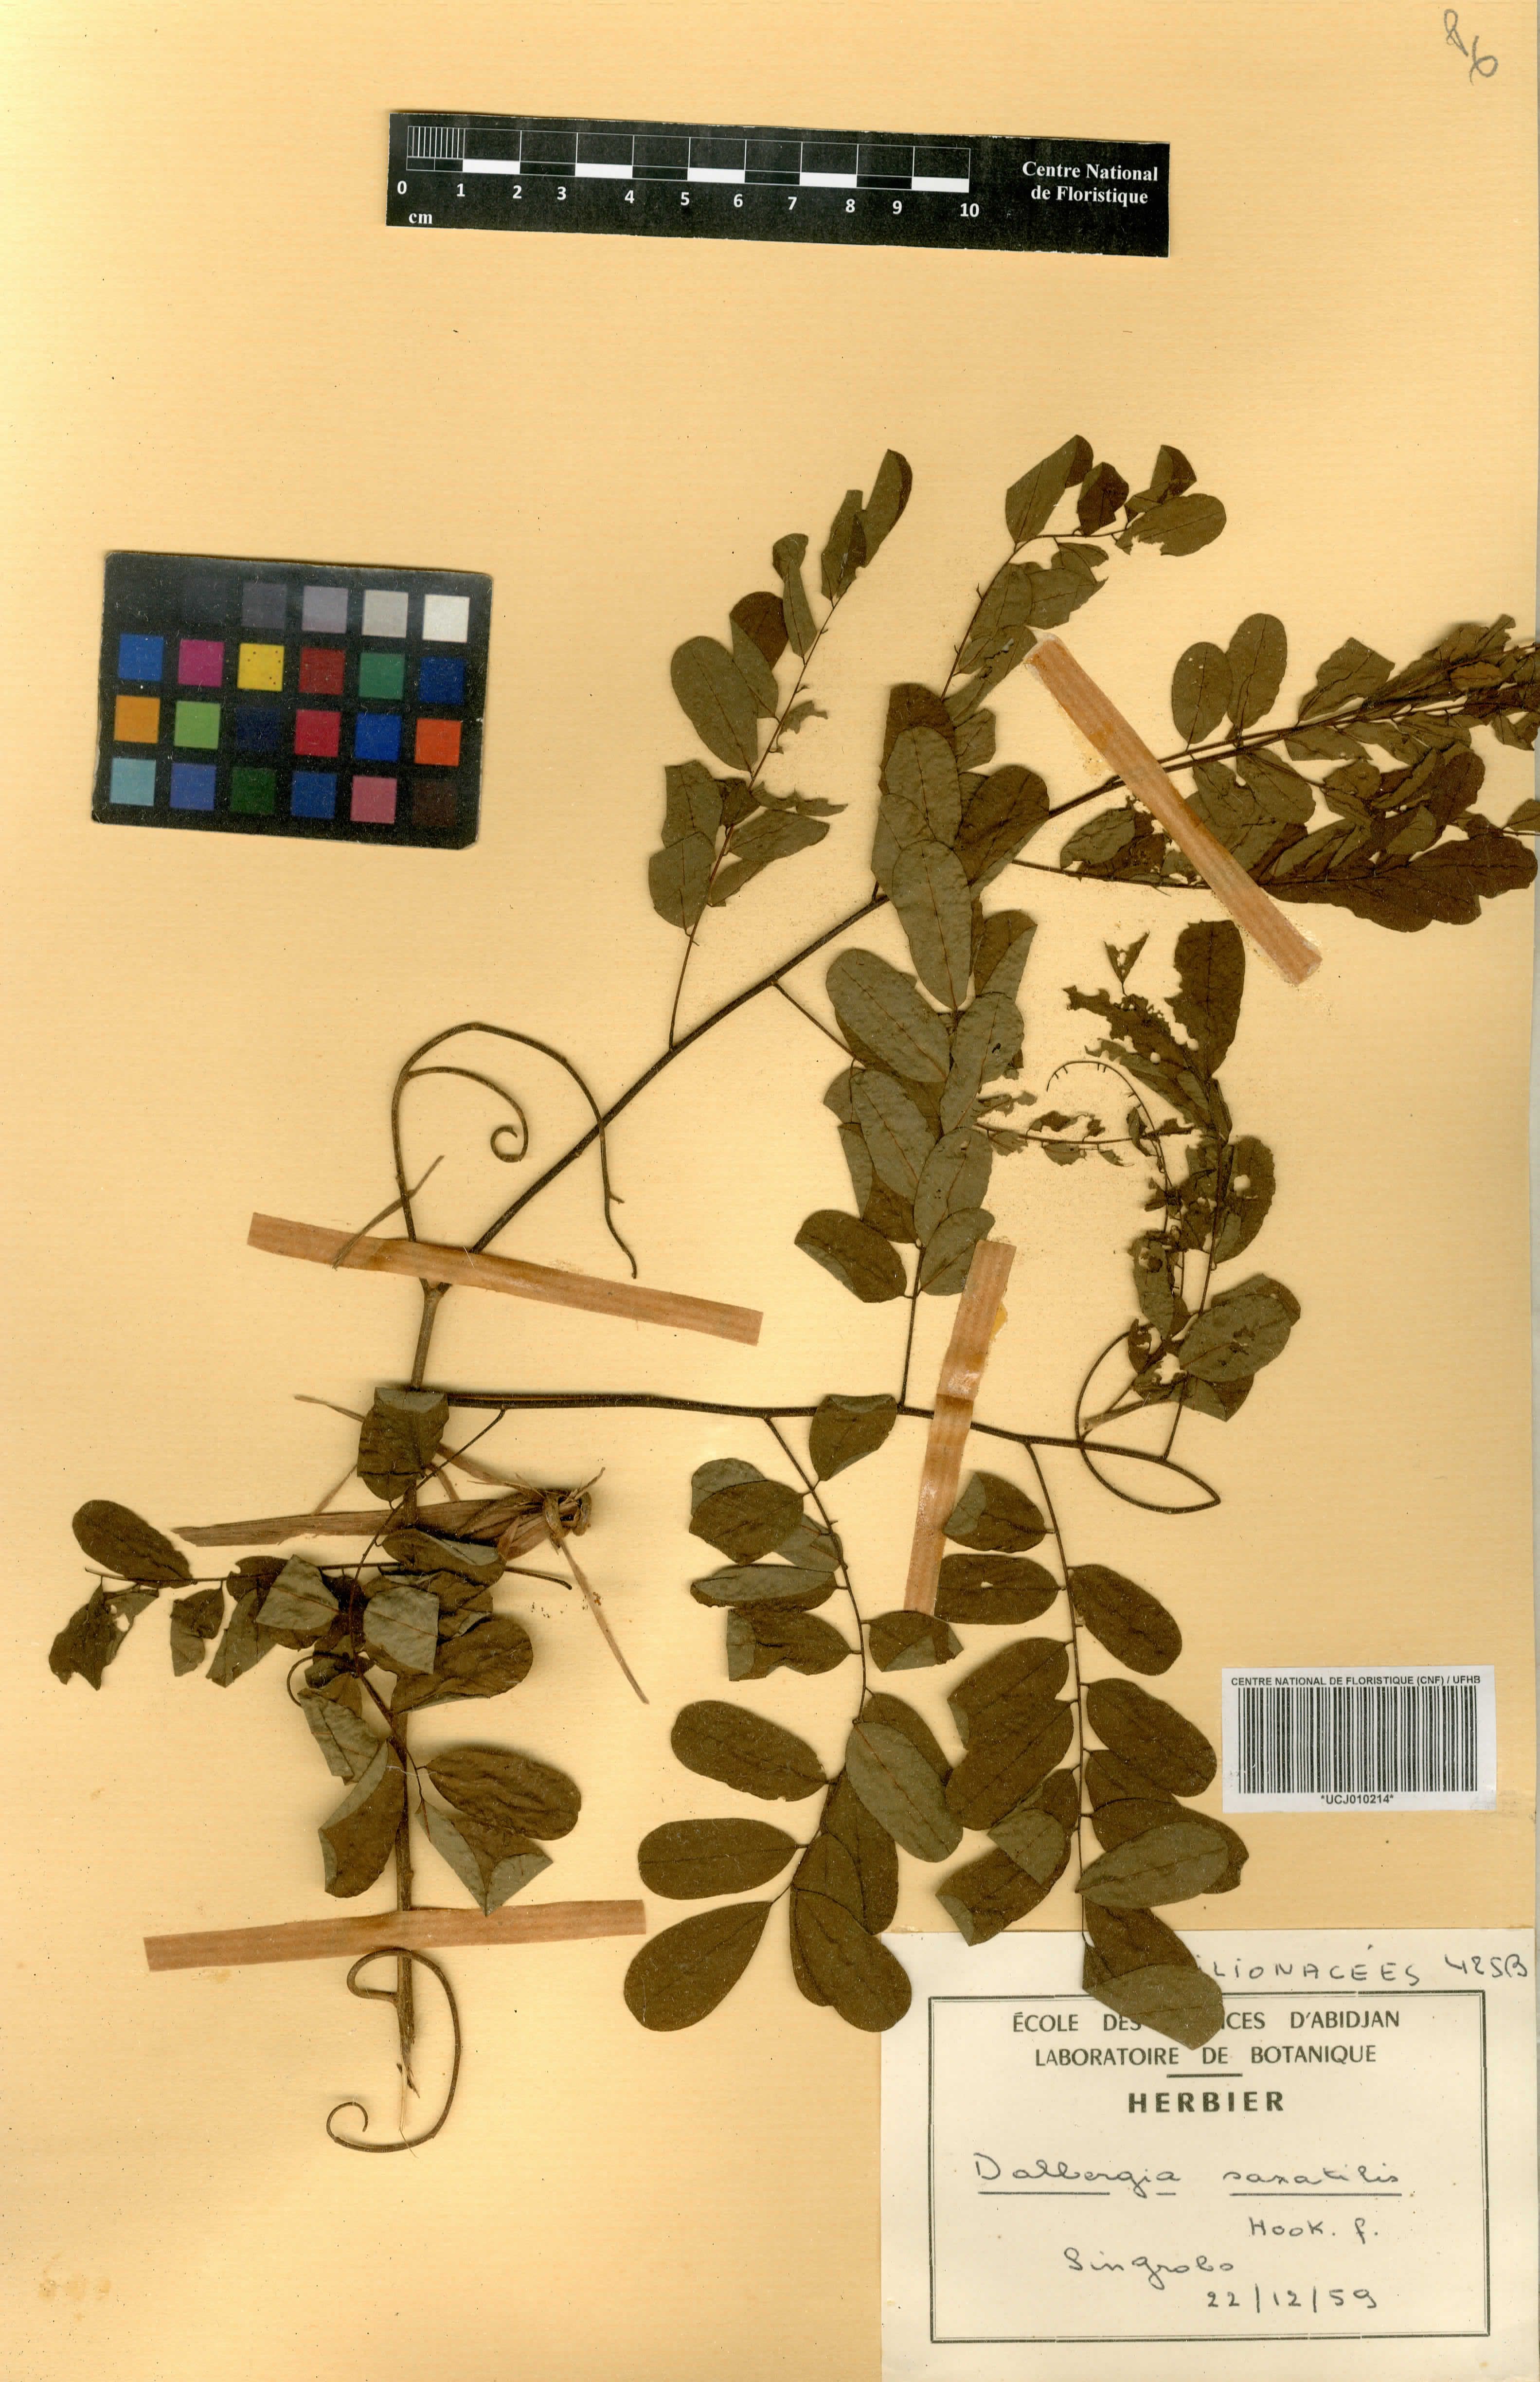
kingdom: Plantae
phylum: Tracheophyta
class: Magnoliopsida
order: Fabales
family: Fabaceae
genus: Dalbergia
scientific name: Dalbergia saxatilis
